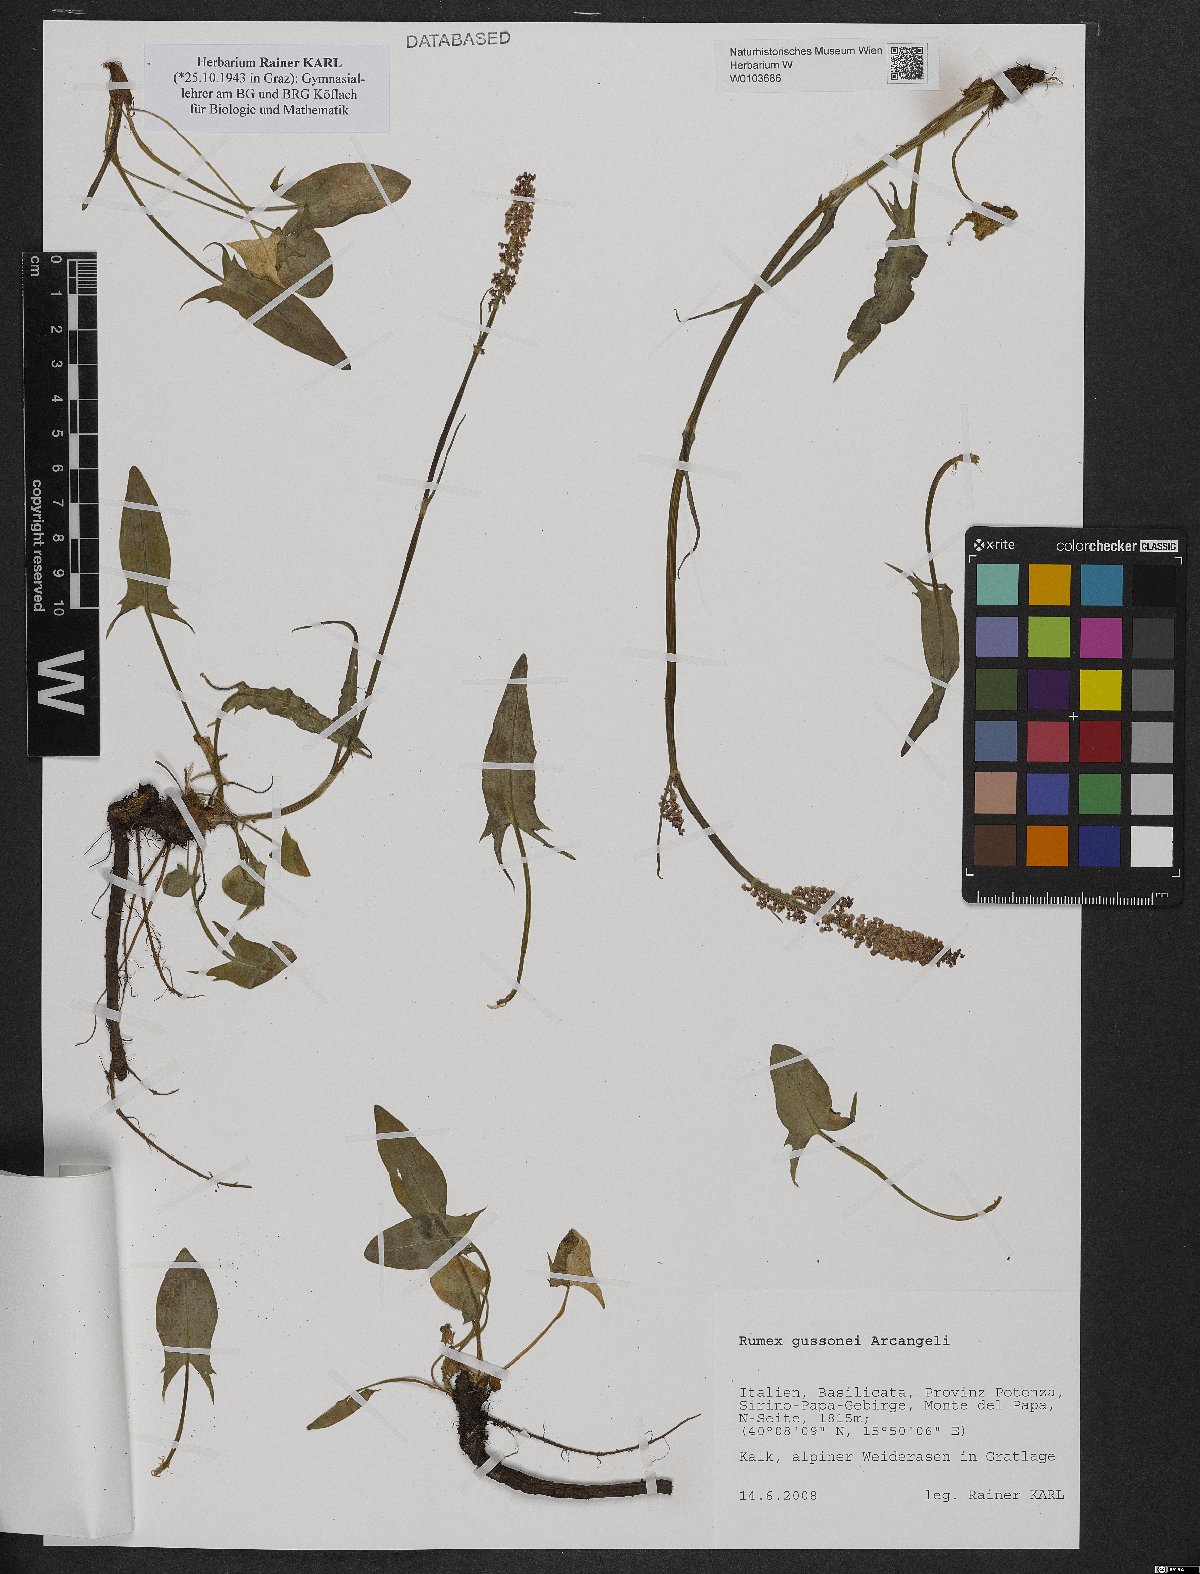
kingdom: Plantae
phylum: Tracheophyta
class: Magnoliopsida
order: Caryophyllales
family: Polygonaceae
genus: Rumex
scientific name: Rumex nebroides
